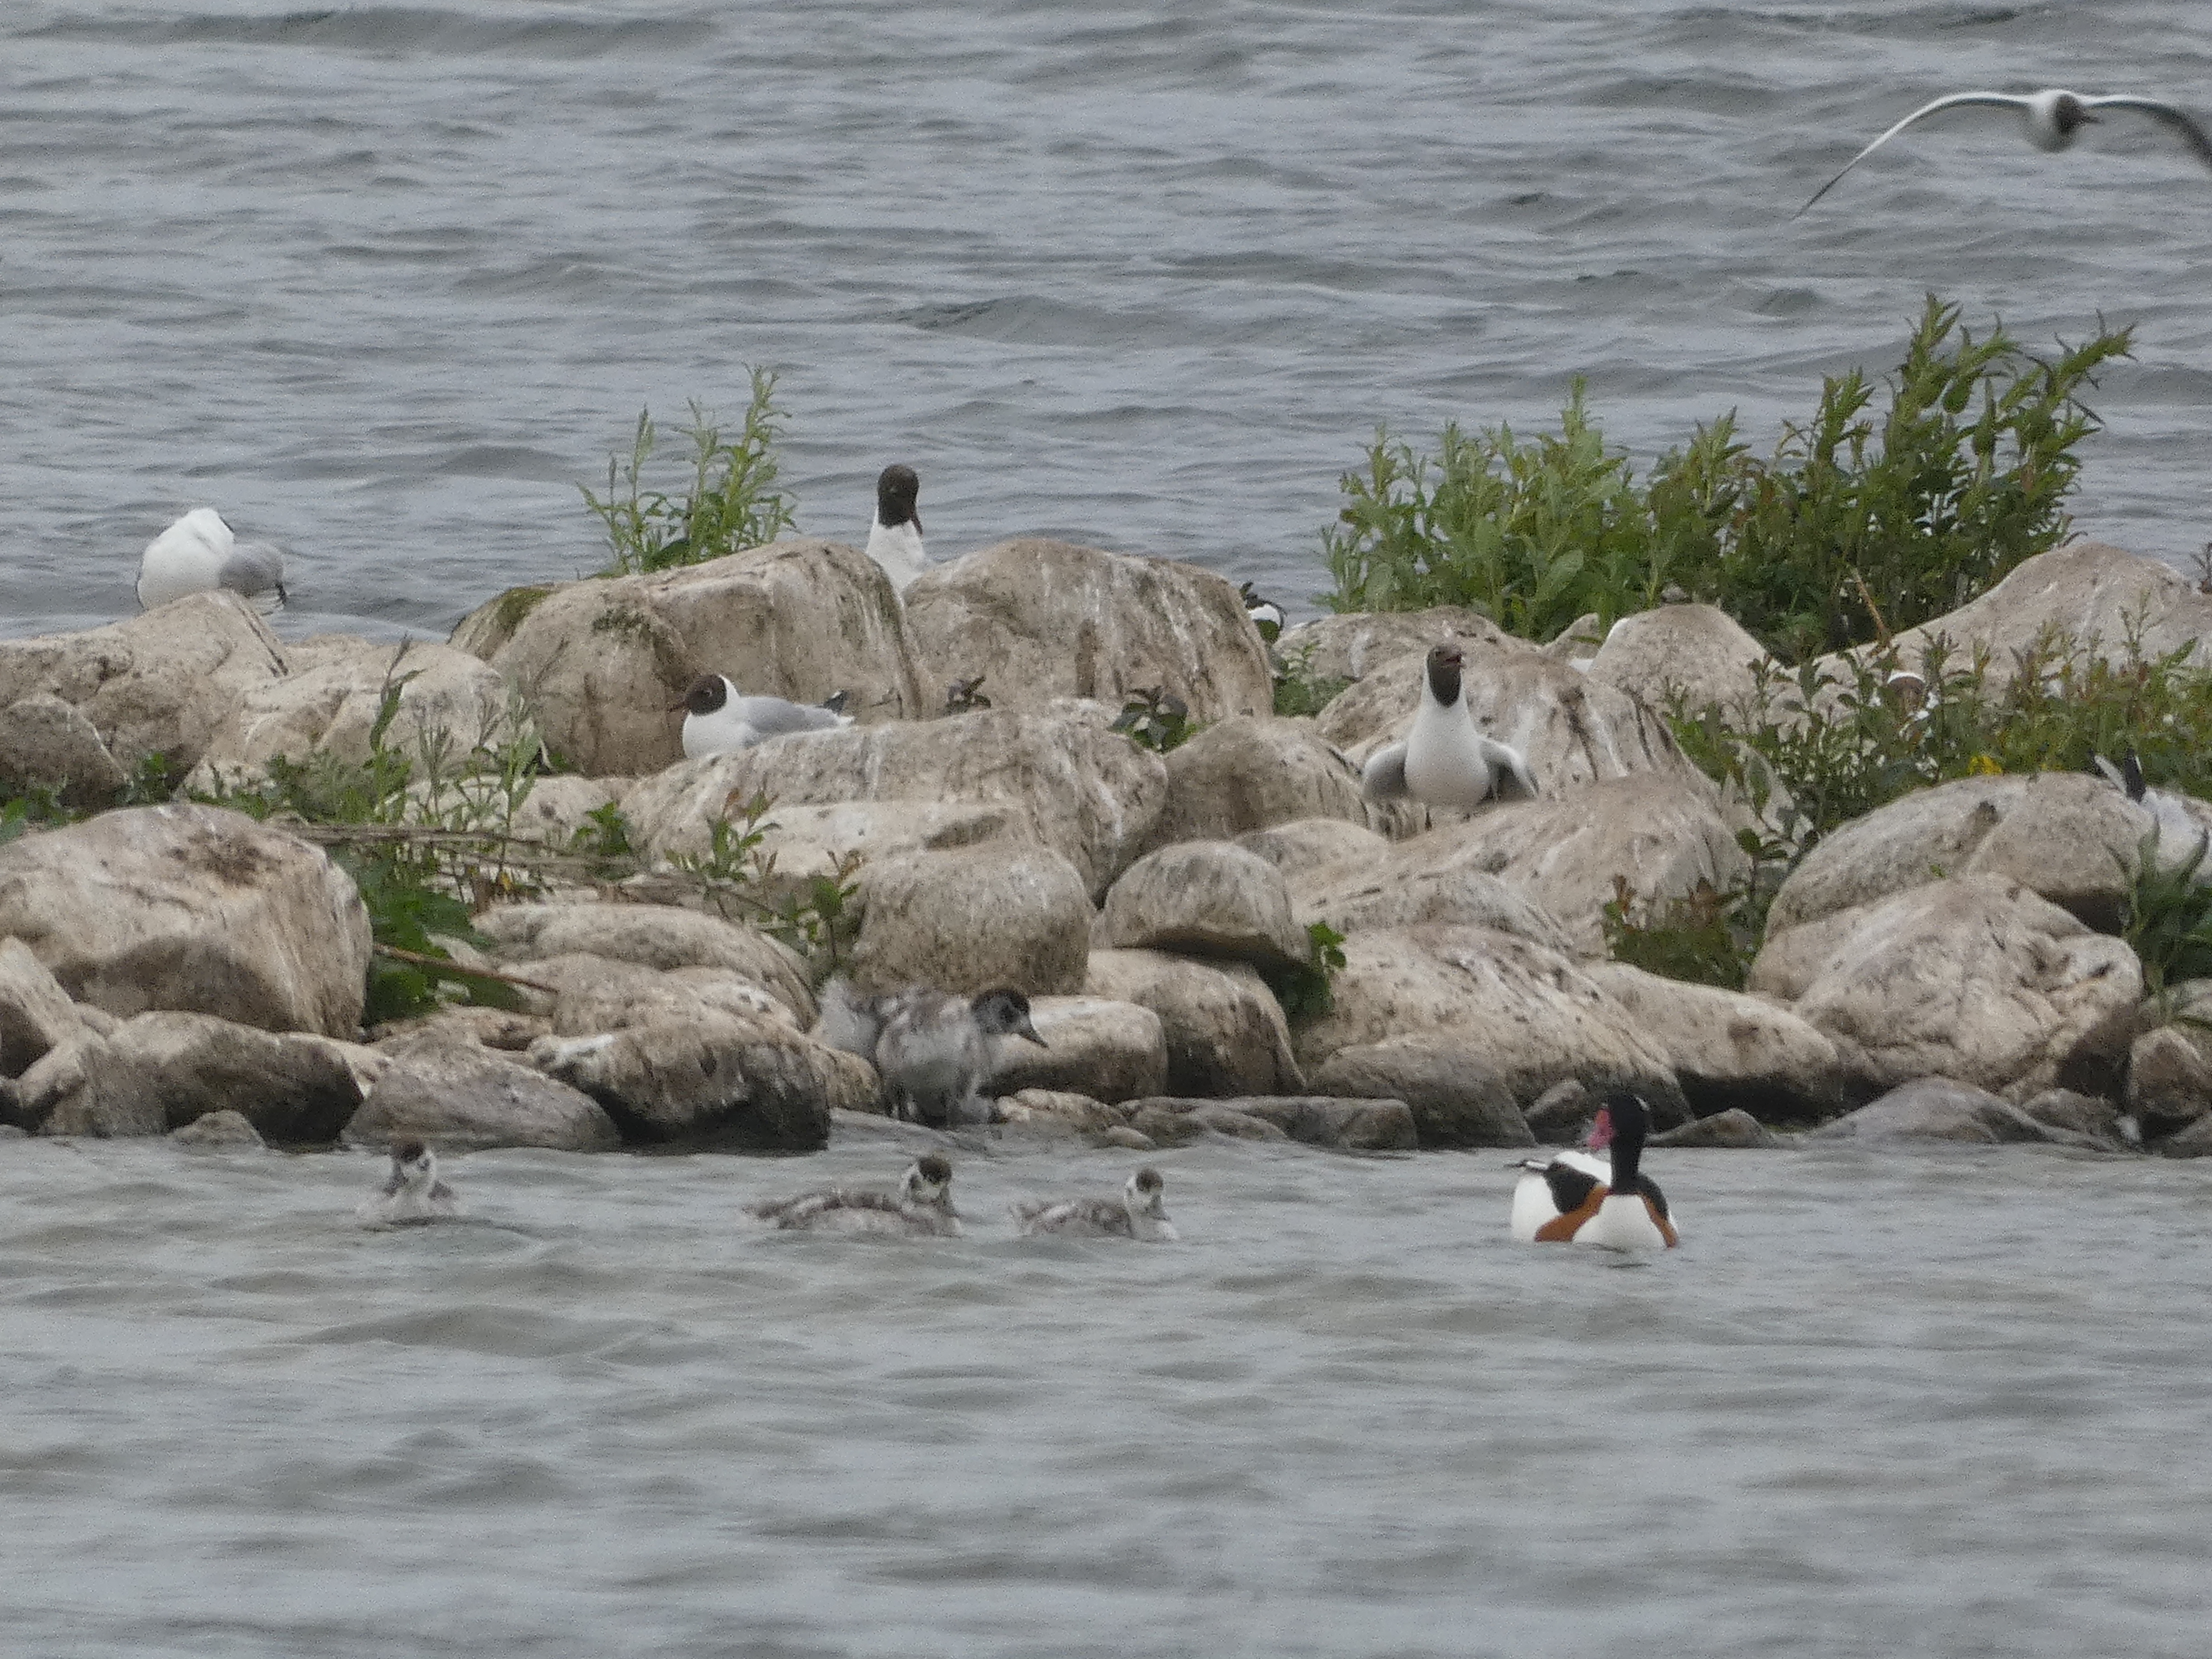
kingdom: Animalia
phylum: Chordata
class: Aves
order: Anseriformes
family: Anatidae
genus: Tadorna
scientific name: Tadorna tadorna
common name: Gravand
